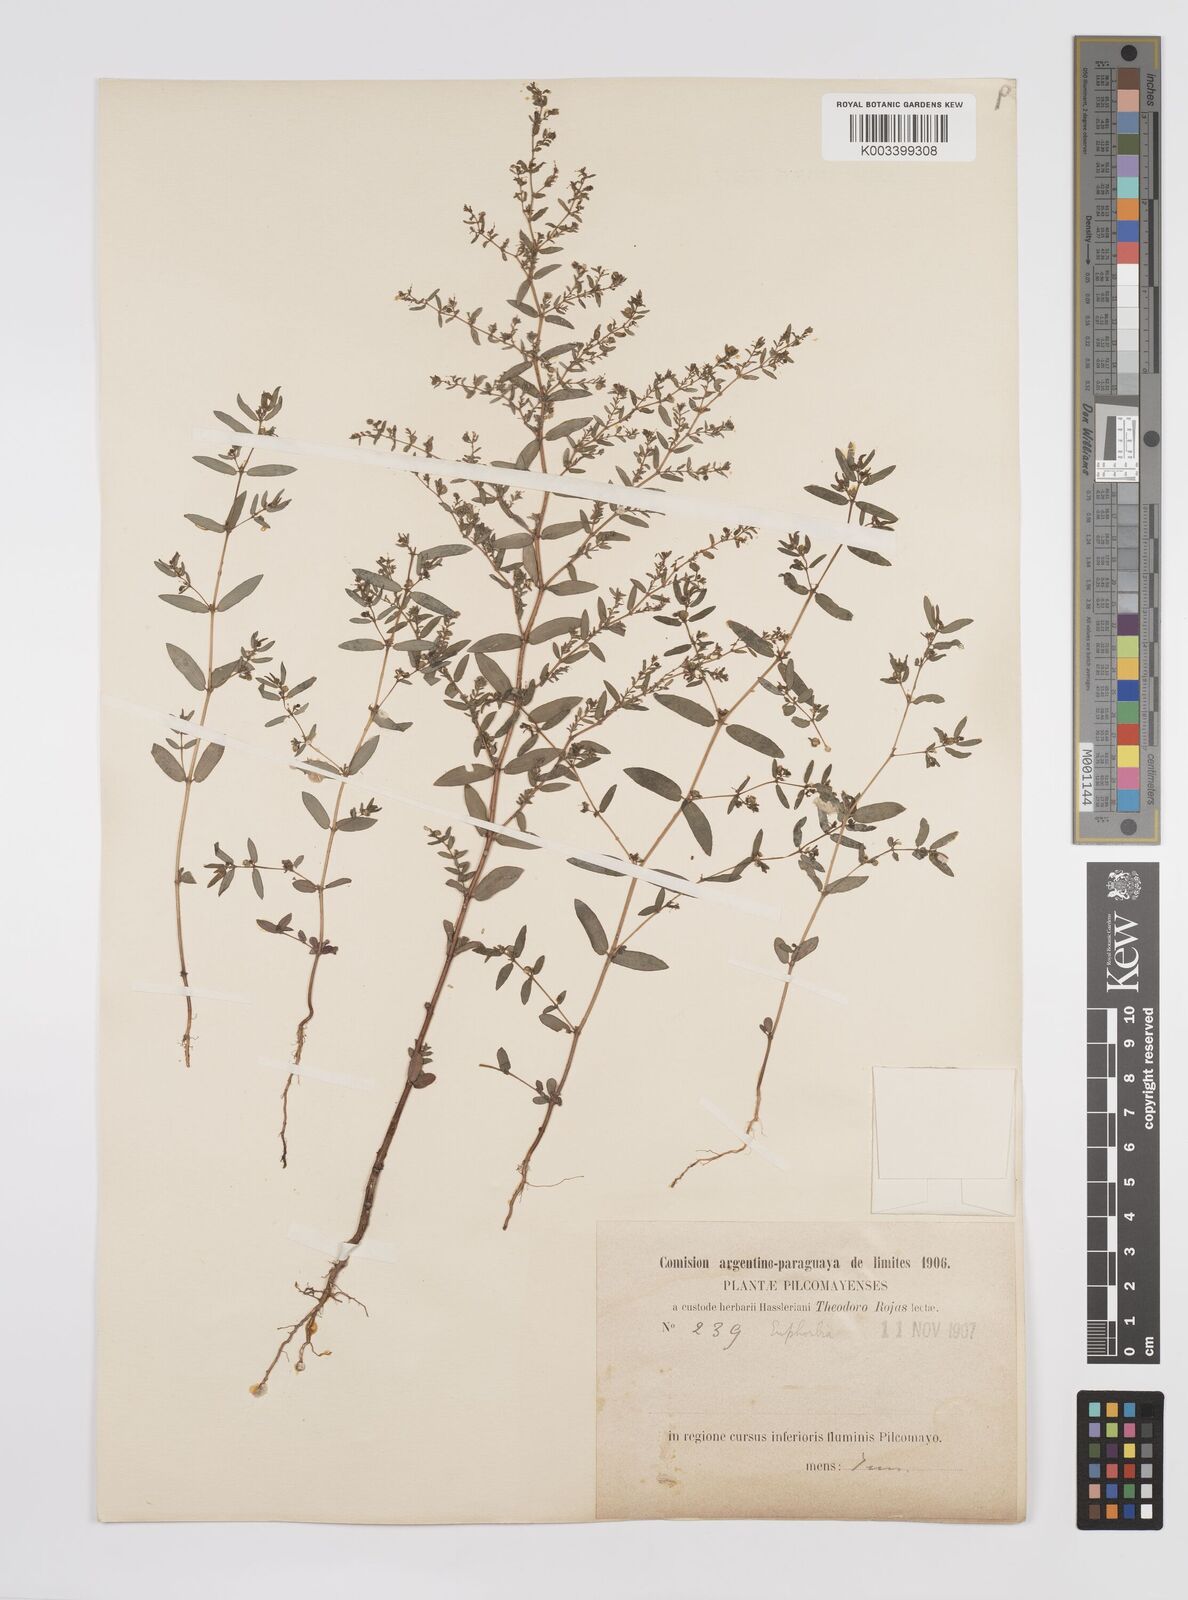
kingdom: Plantae
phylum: Tracheophyta
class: Magnoliopsida
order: Malpighiales
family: Euphorbiaceae
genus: Euphorbia
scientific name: Euphorbia
